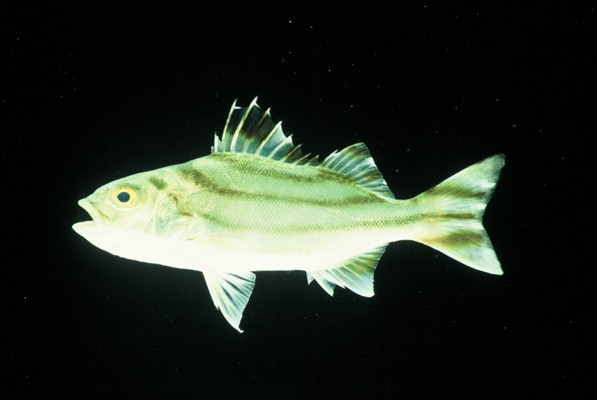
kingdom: Animalia
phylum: Chordata
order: Perciformes
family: Terapontidae
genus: Terapon
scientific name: Terapon jarbua
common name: Jarbua terapon
